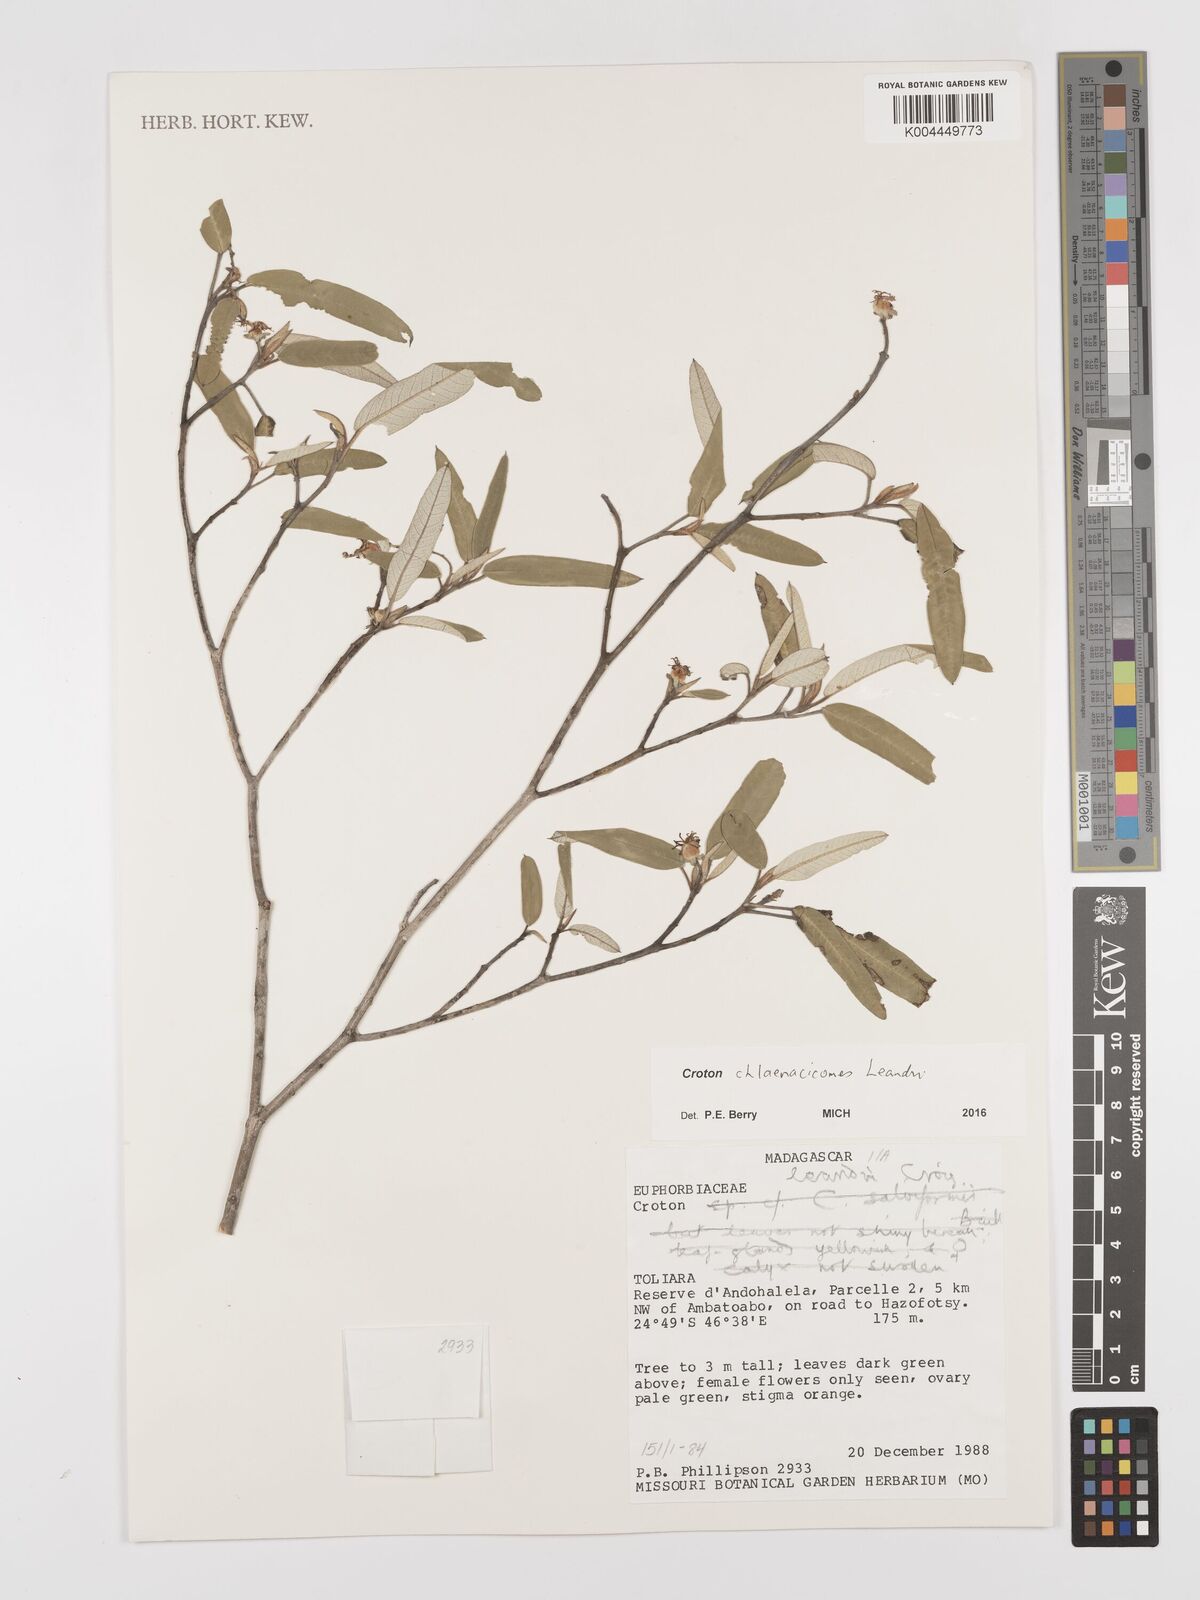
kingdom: Plantae
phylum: Tracheophyta
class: Magnoliopsida
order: Malpighiales
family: Euphorbiaceae
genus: Croton
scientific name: Croton chlaenacicomes
